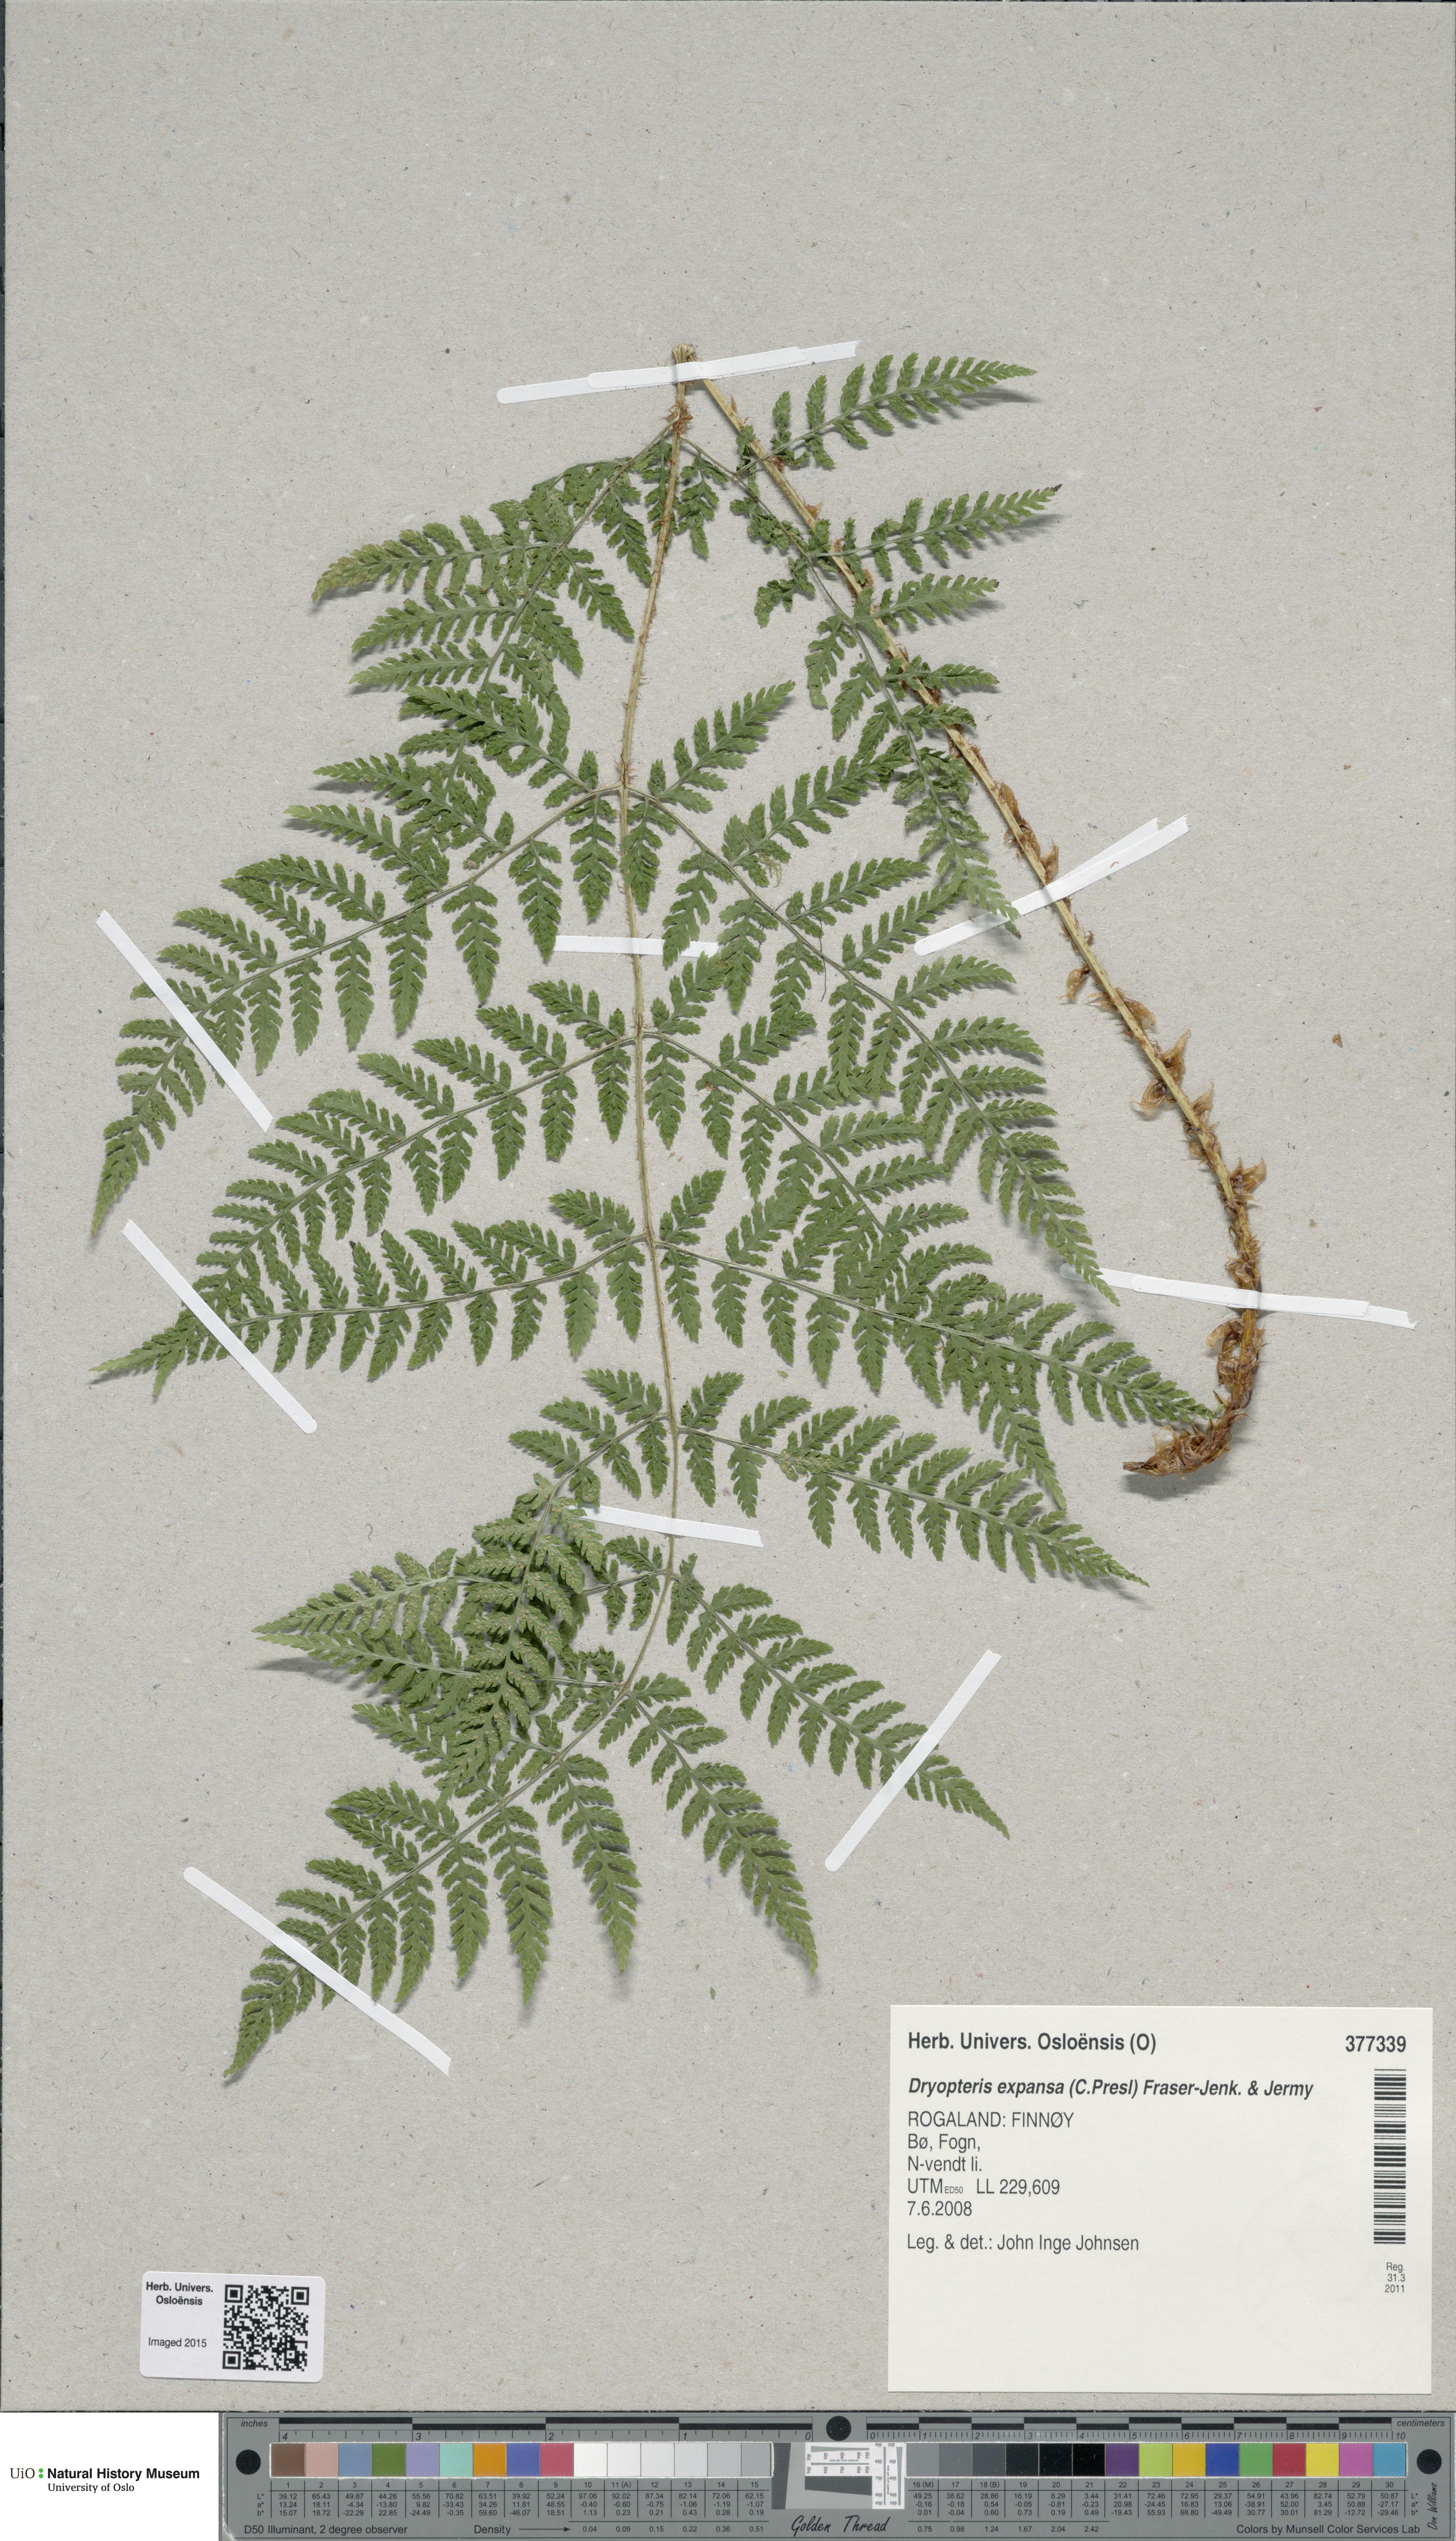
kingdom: Plantae
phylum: Tracheophyta
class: Polypodiopsida
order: Polypodiales
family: Dryopteridaceae
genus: Dryopteris
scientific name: Dryopteris expansa
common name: Northern buckler fern
